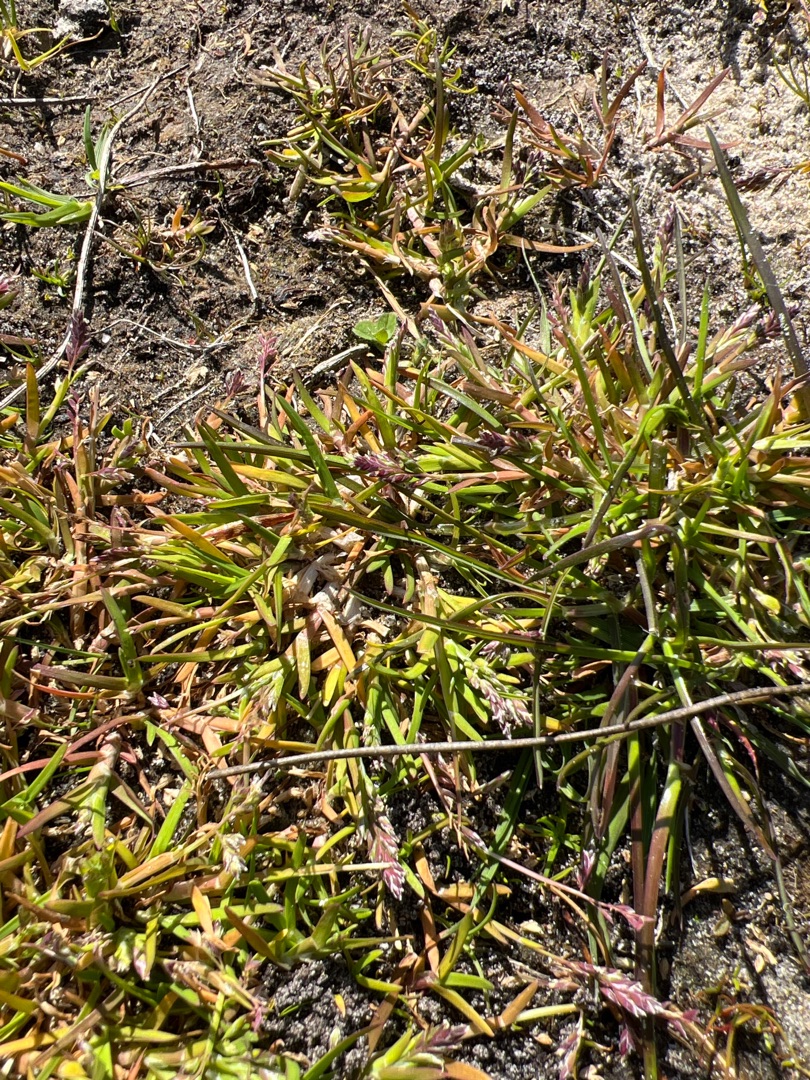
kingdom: Plantae
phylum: Tracheophyta
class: Liliopsida
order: Poales
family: Poaceae
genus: Poa
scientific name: Poa annua
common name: Enårig rapgræs
